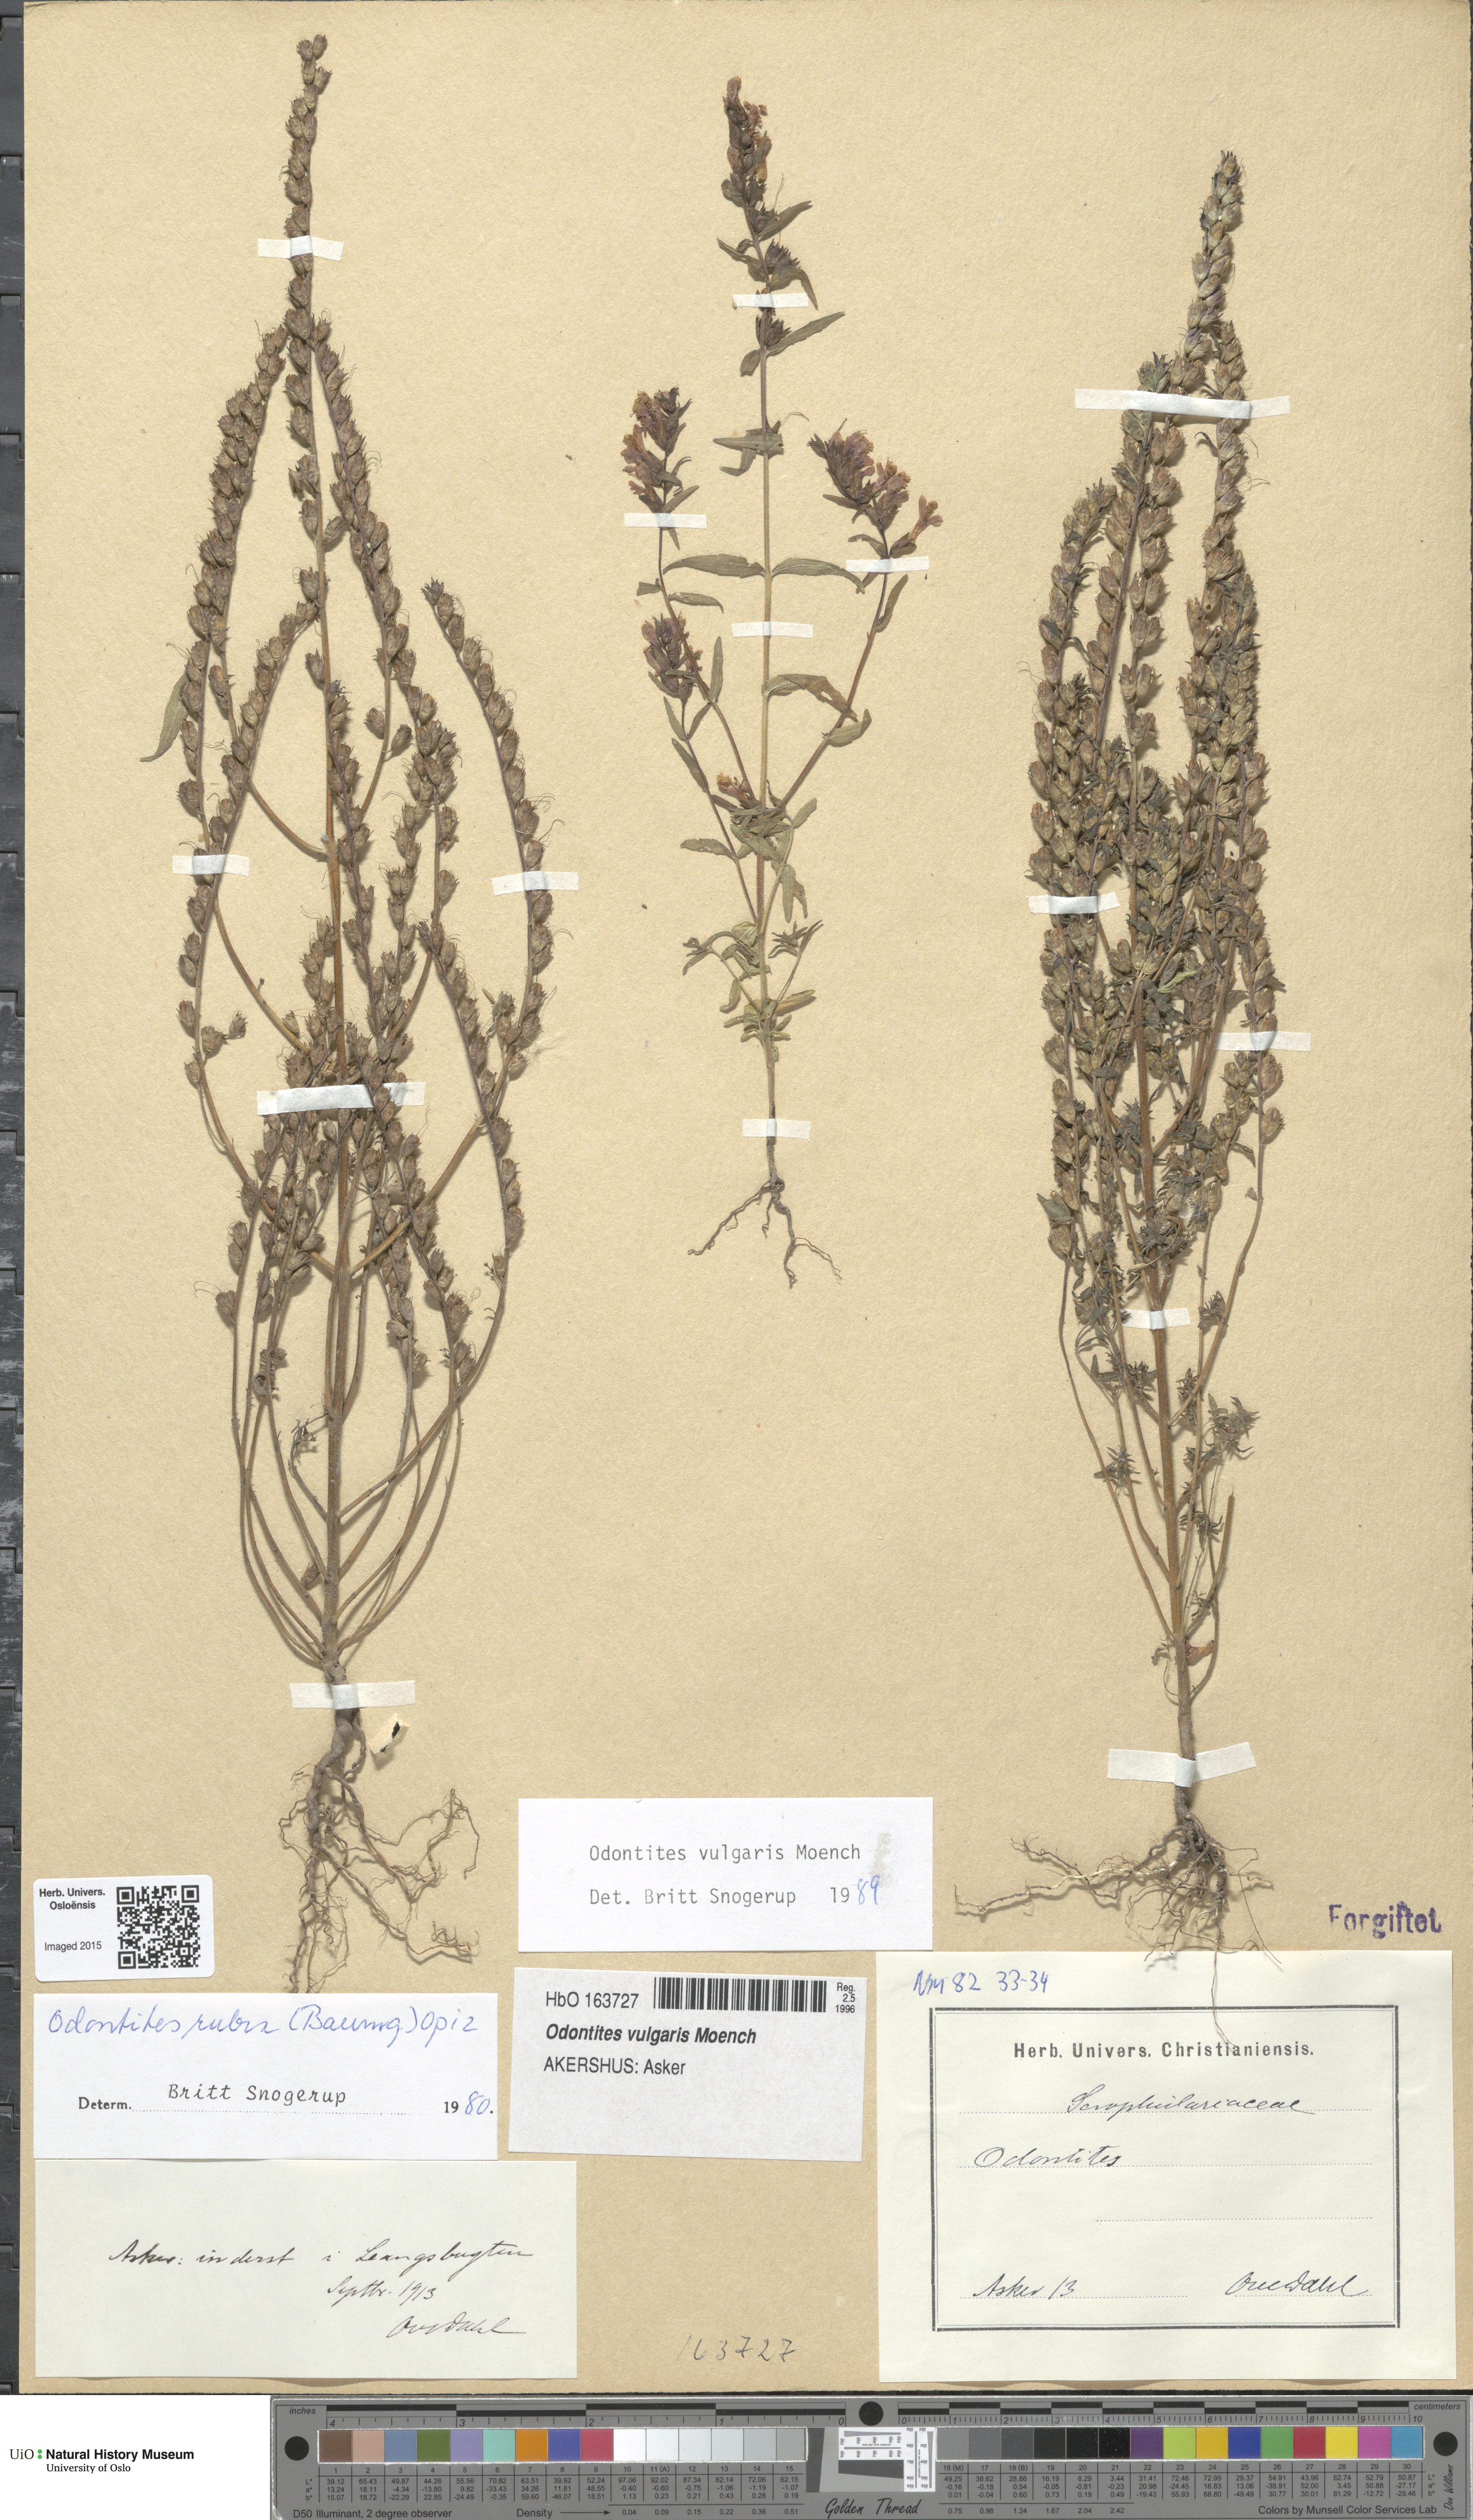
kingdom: Plantae
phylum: Tracheophyta
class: Magnoliopsida
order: Lamiales
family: Orobanchaceae
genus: Odontites
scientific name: Odontites vulgaris
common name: Broomrape
